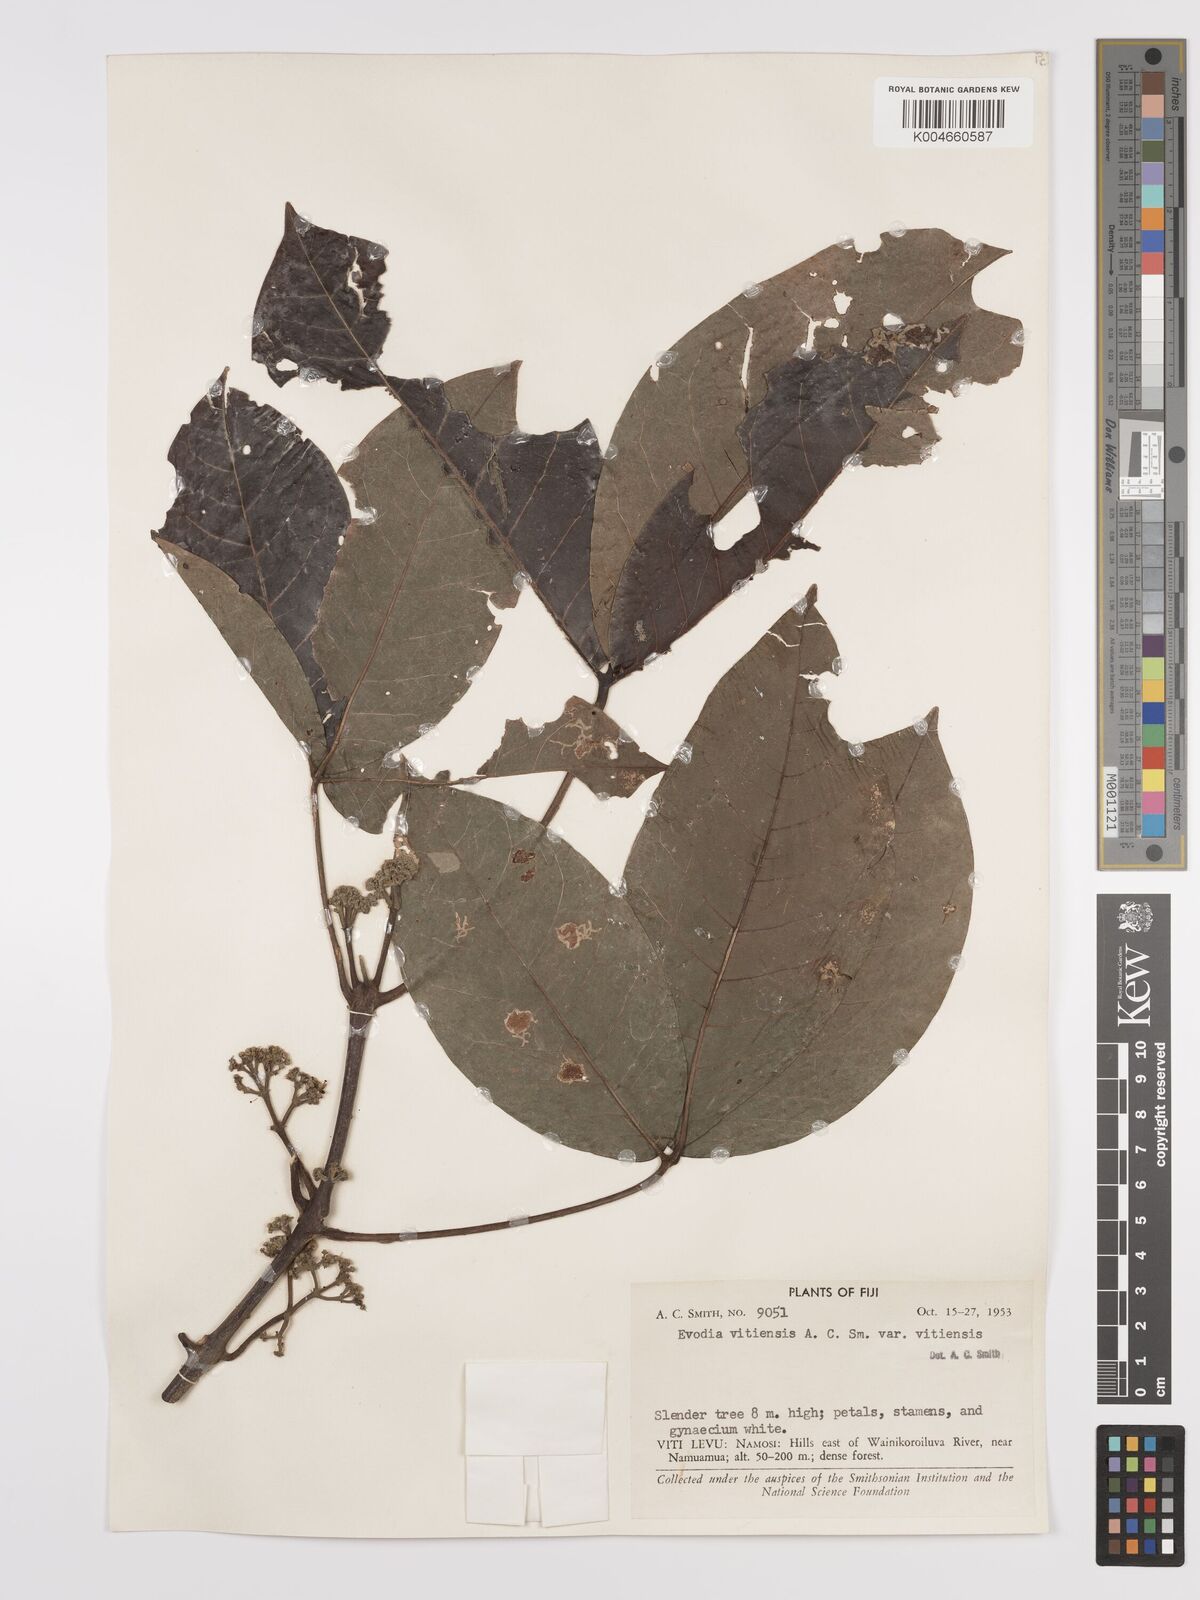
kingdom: Plantae
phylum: Tracheophyta
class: Magnoliopsida
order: Sapindales
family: Rutaceae
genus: Melicope
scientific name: Melicope cucullata
